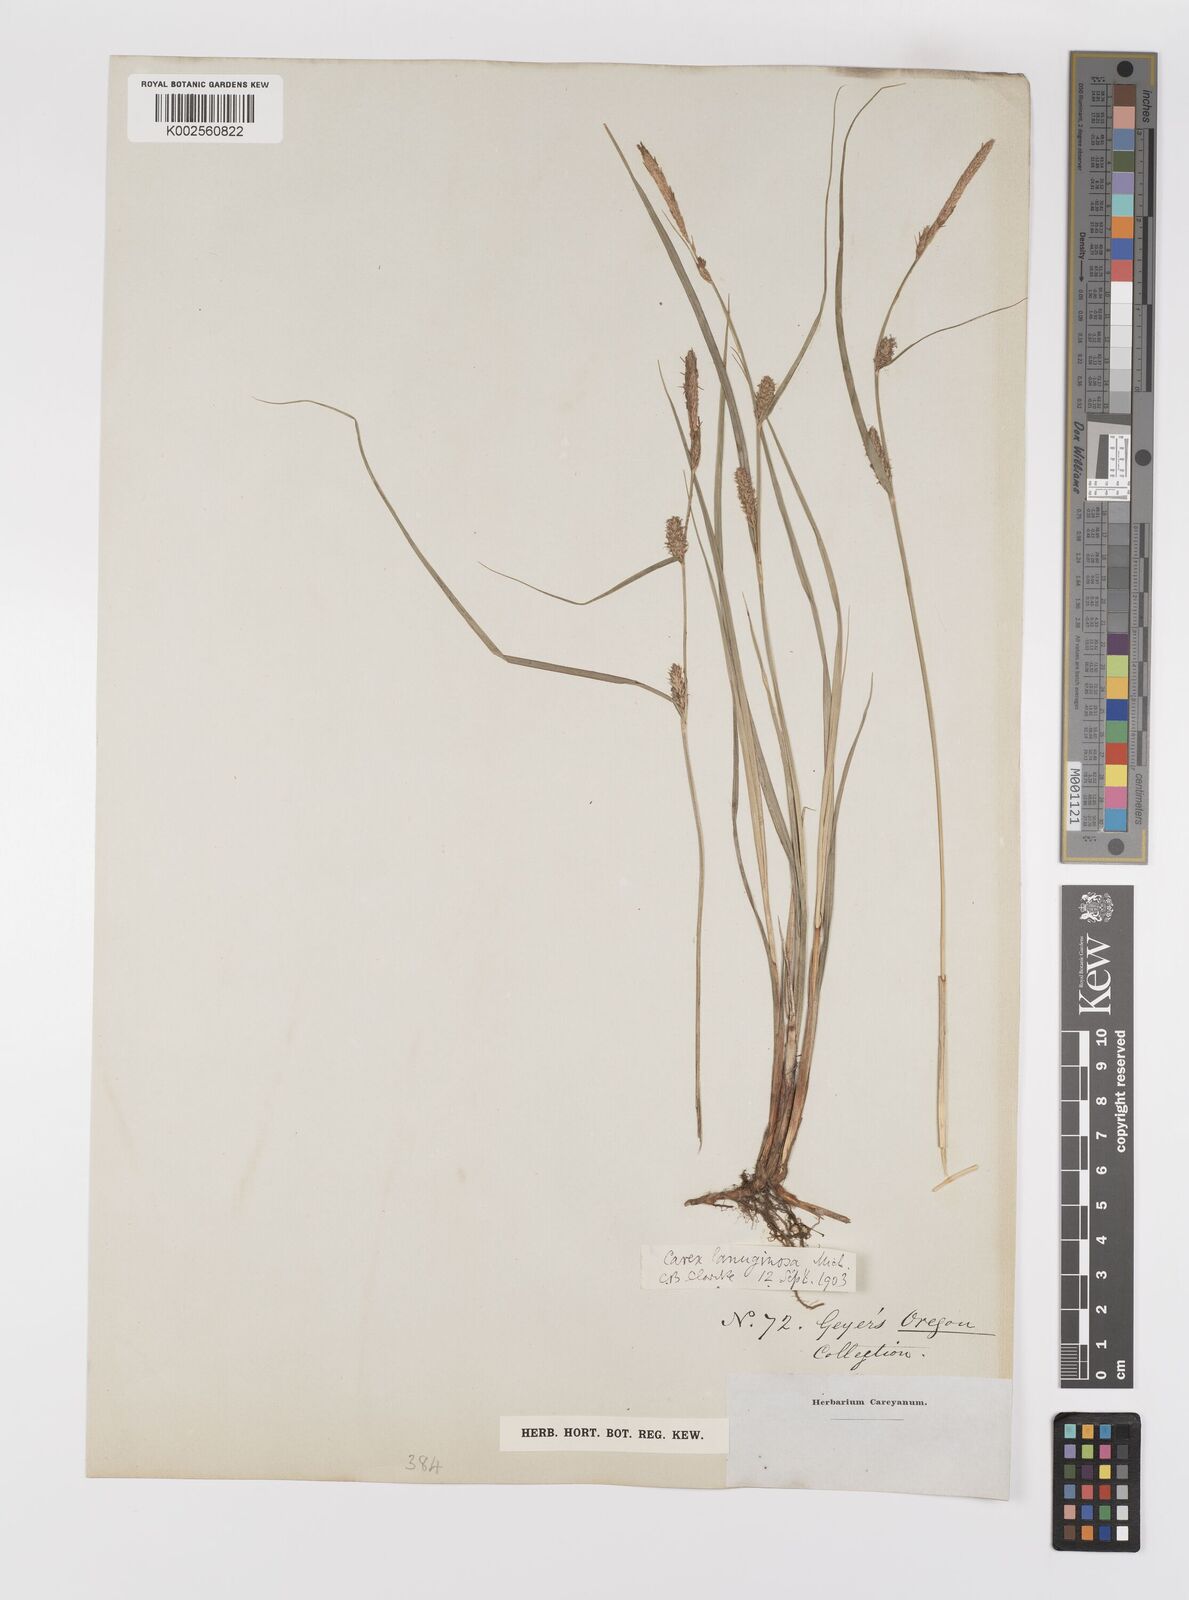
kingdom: Plantae
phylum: Tracheophyta
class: Liliopsida
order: Poales
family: Cyperaceae
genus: Carex
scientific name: Carex lasiocarpa
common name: Slender sedge
